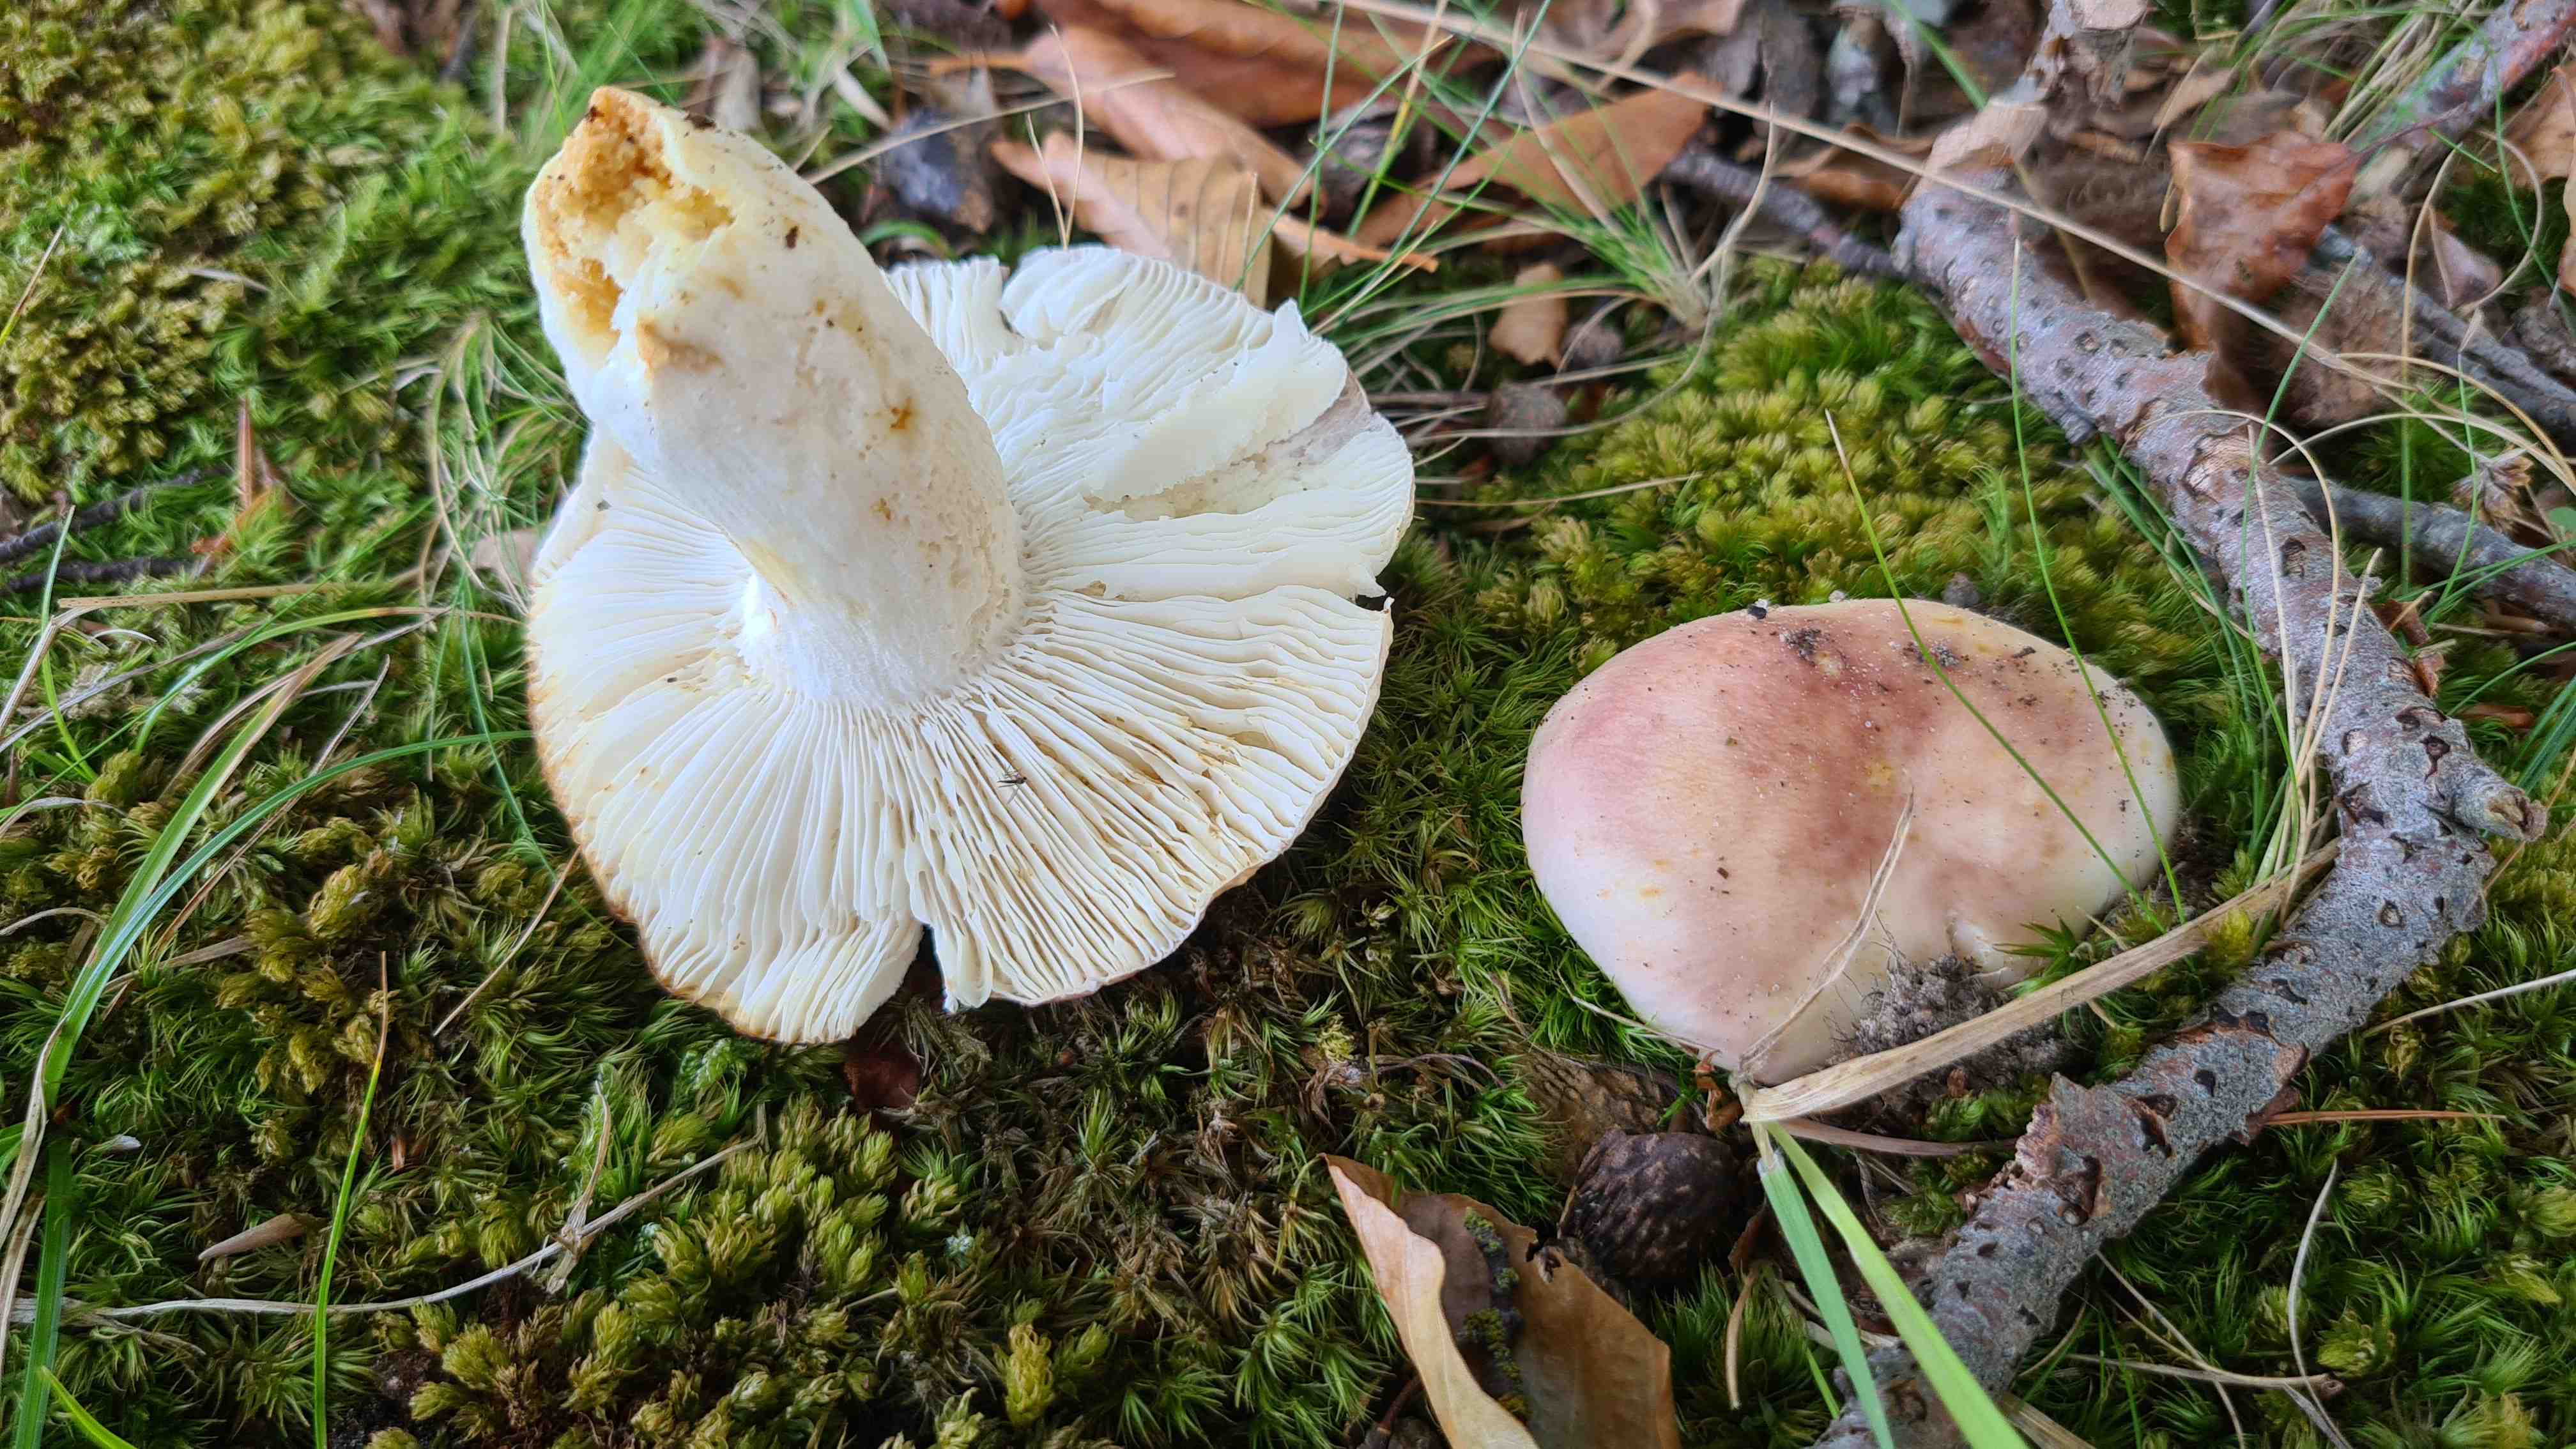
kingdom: Fungi
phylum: Basidiomycota
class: Agaricomycetes
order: Russulales
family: Russulaceae
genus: Russula
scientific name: Russula vesca
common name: spiselig skørhat
